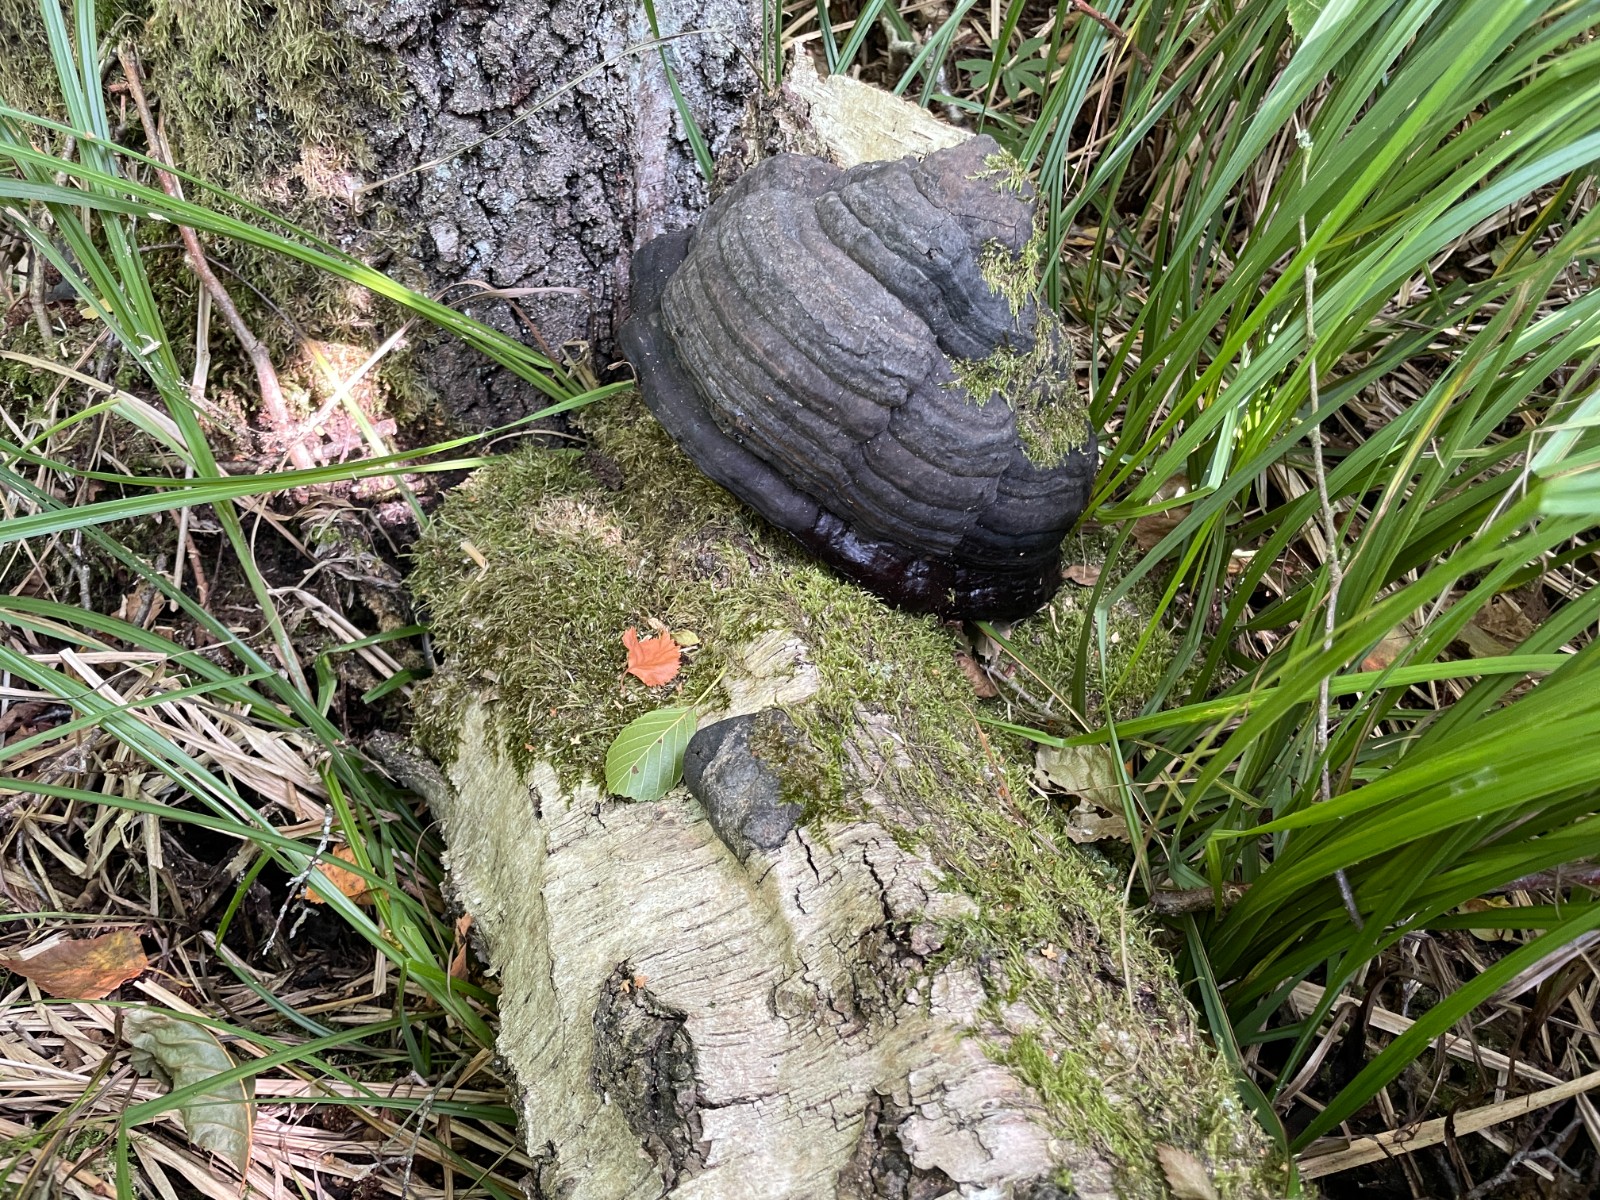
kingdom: Fungi
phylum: Basidiomycota
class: Agaricomycetes
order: Polyporales
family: Polyporaceae
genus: Fomes
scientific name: Fomes fomentarius
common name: tøndersvamp
